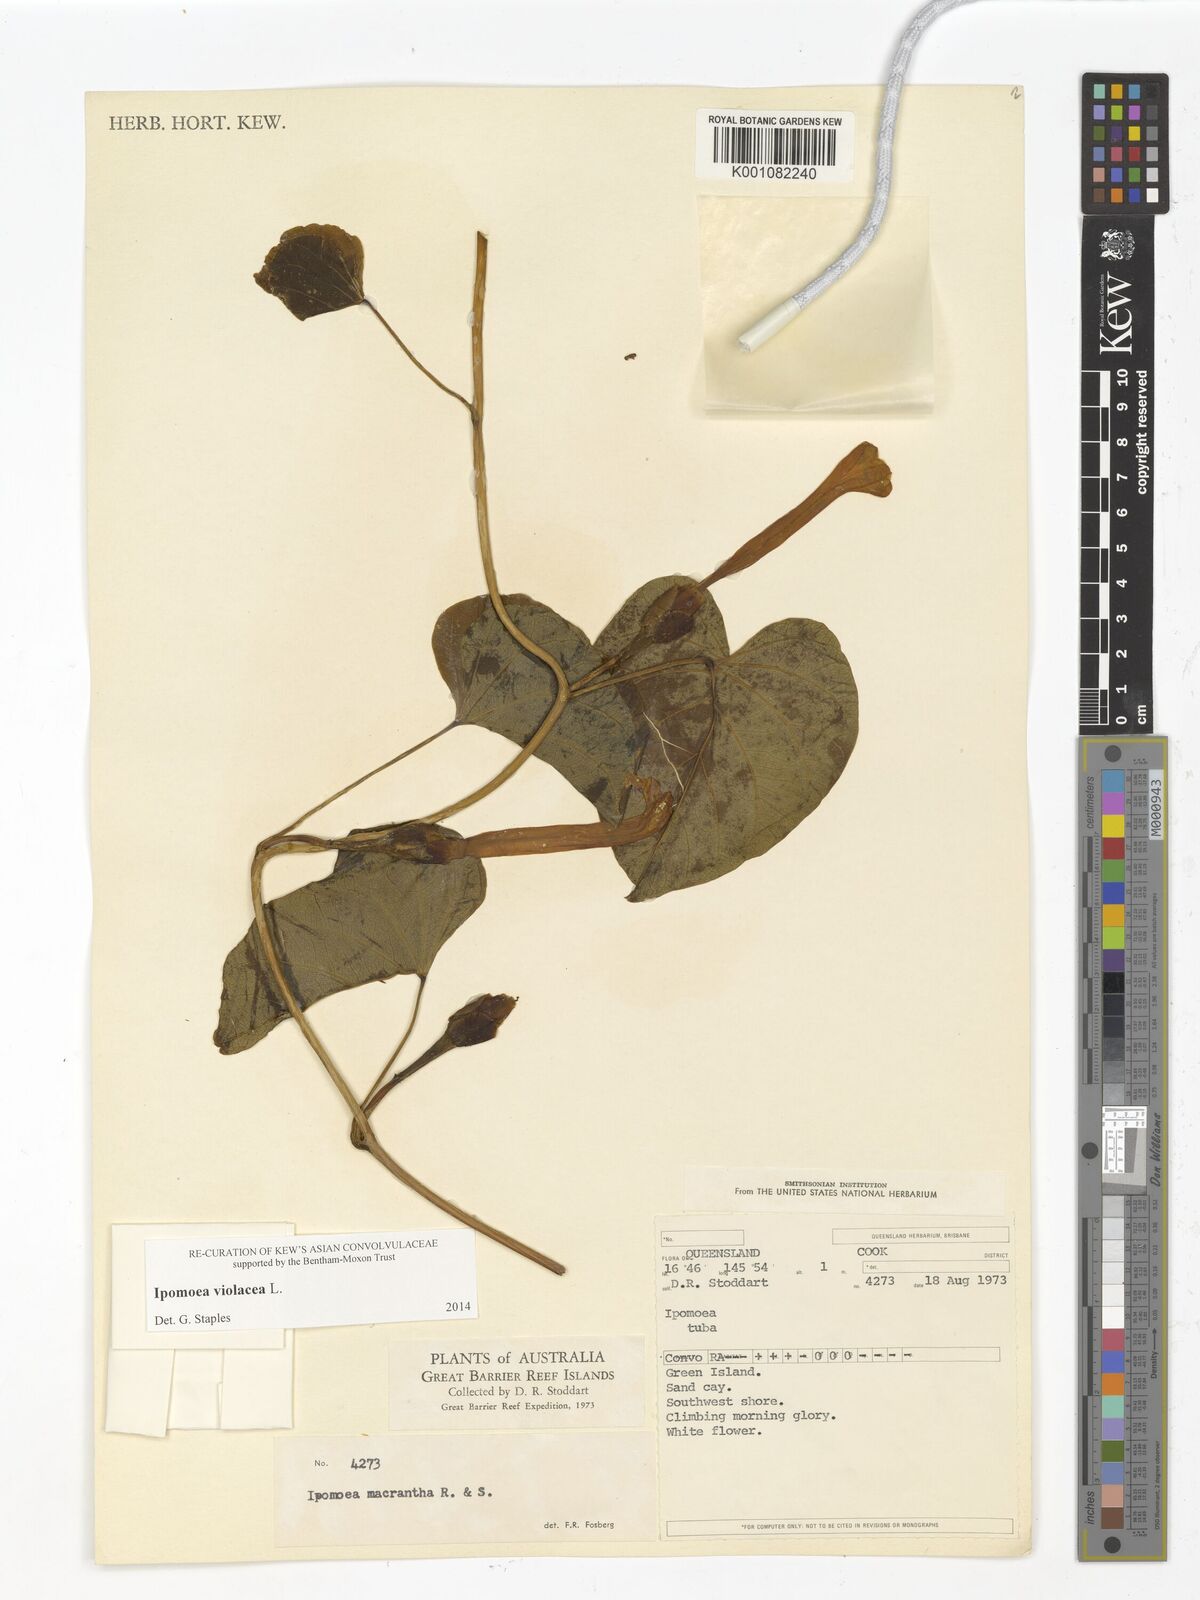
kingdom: Plantae
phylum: Tracheophyta
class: Magnoliopsida
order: Solanales
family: Convolvulaceae
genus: Ipomoea
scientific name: Ipomoea violacea
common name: Beach moonflower
